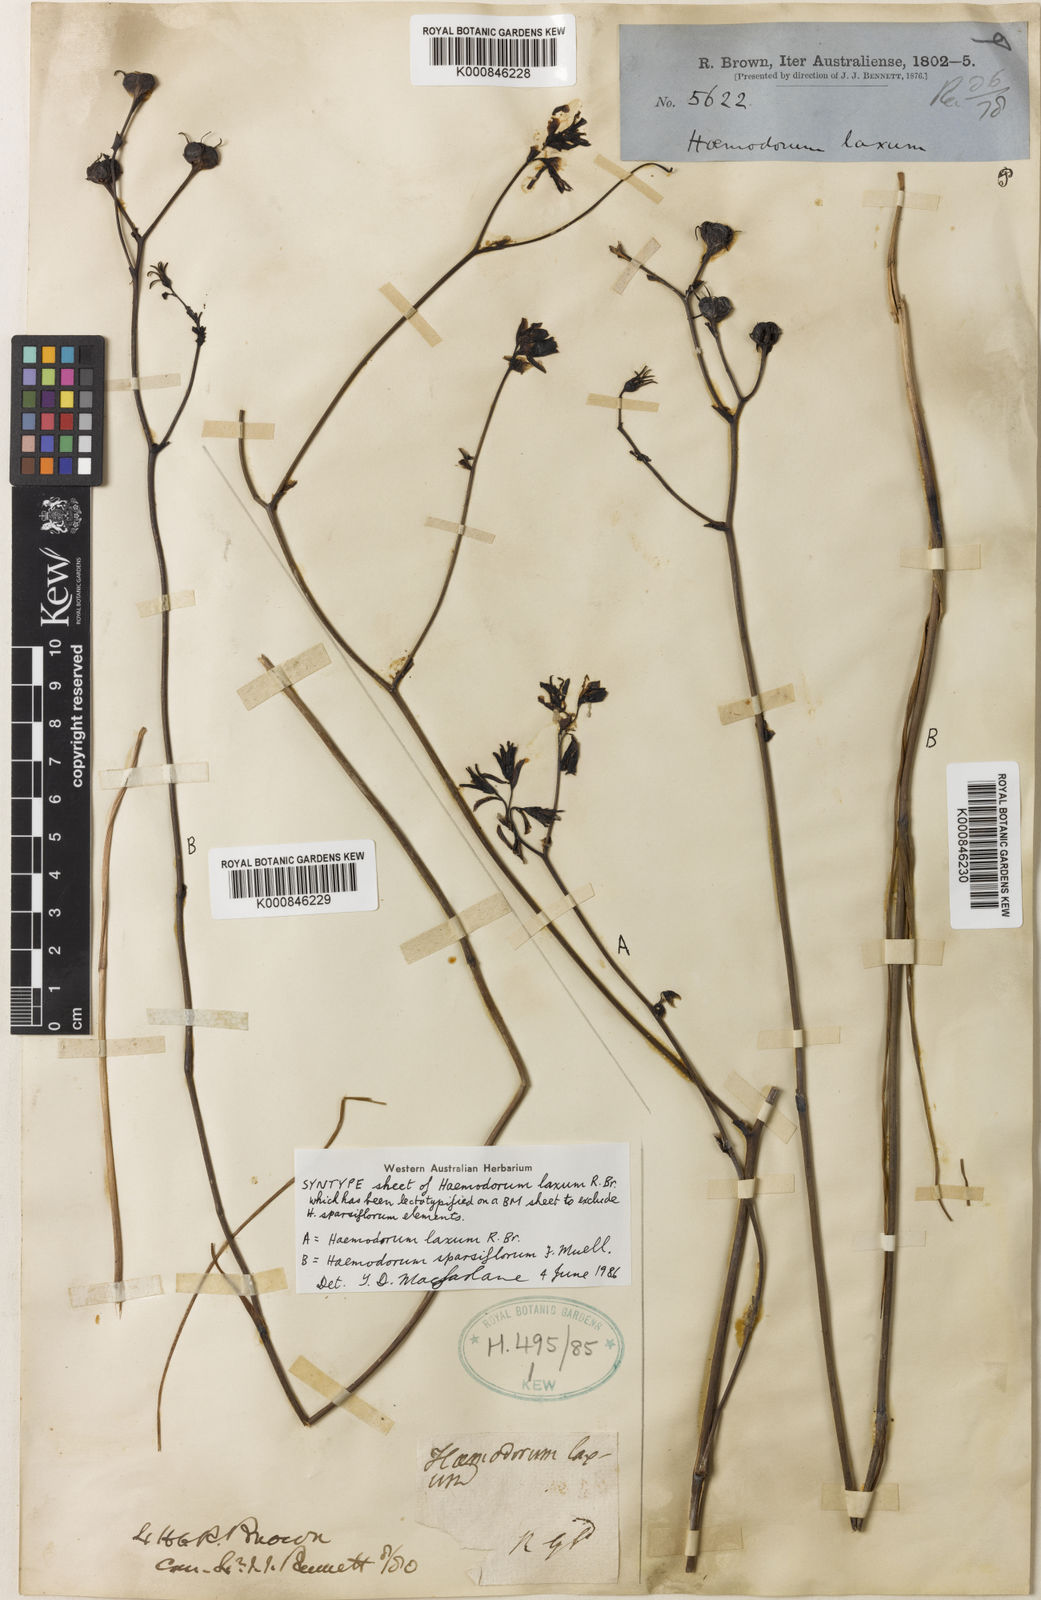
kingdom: Plantae
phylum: Tracheophyta
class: Liliopsida
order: Commelinales
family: Haemodoraceae
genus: Haemodorum
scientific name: Haemodorum laxum
